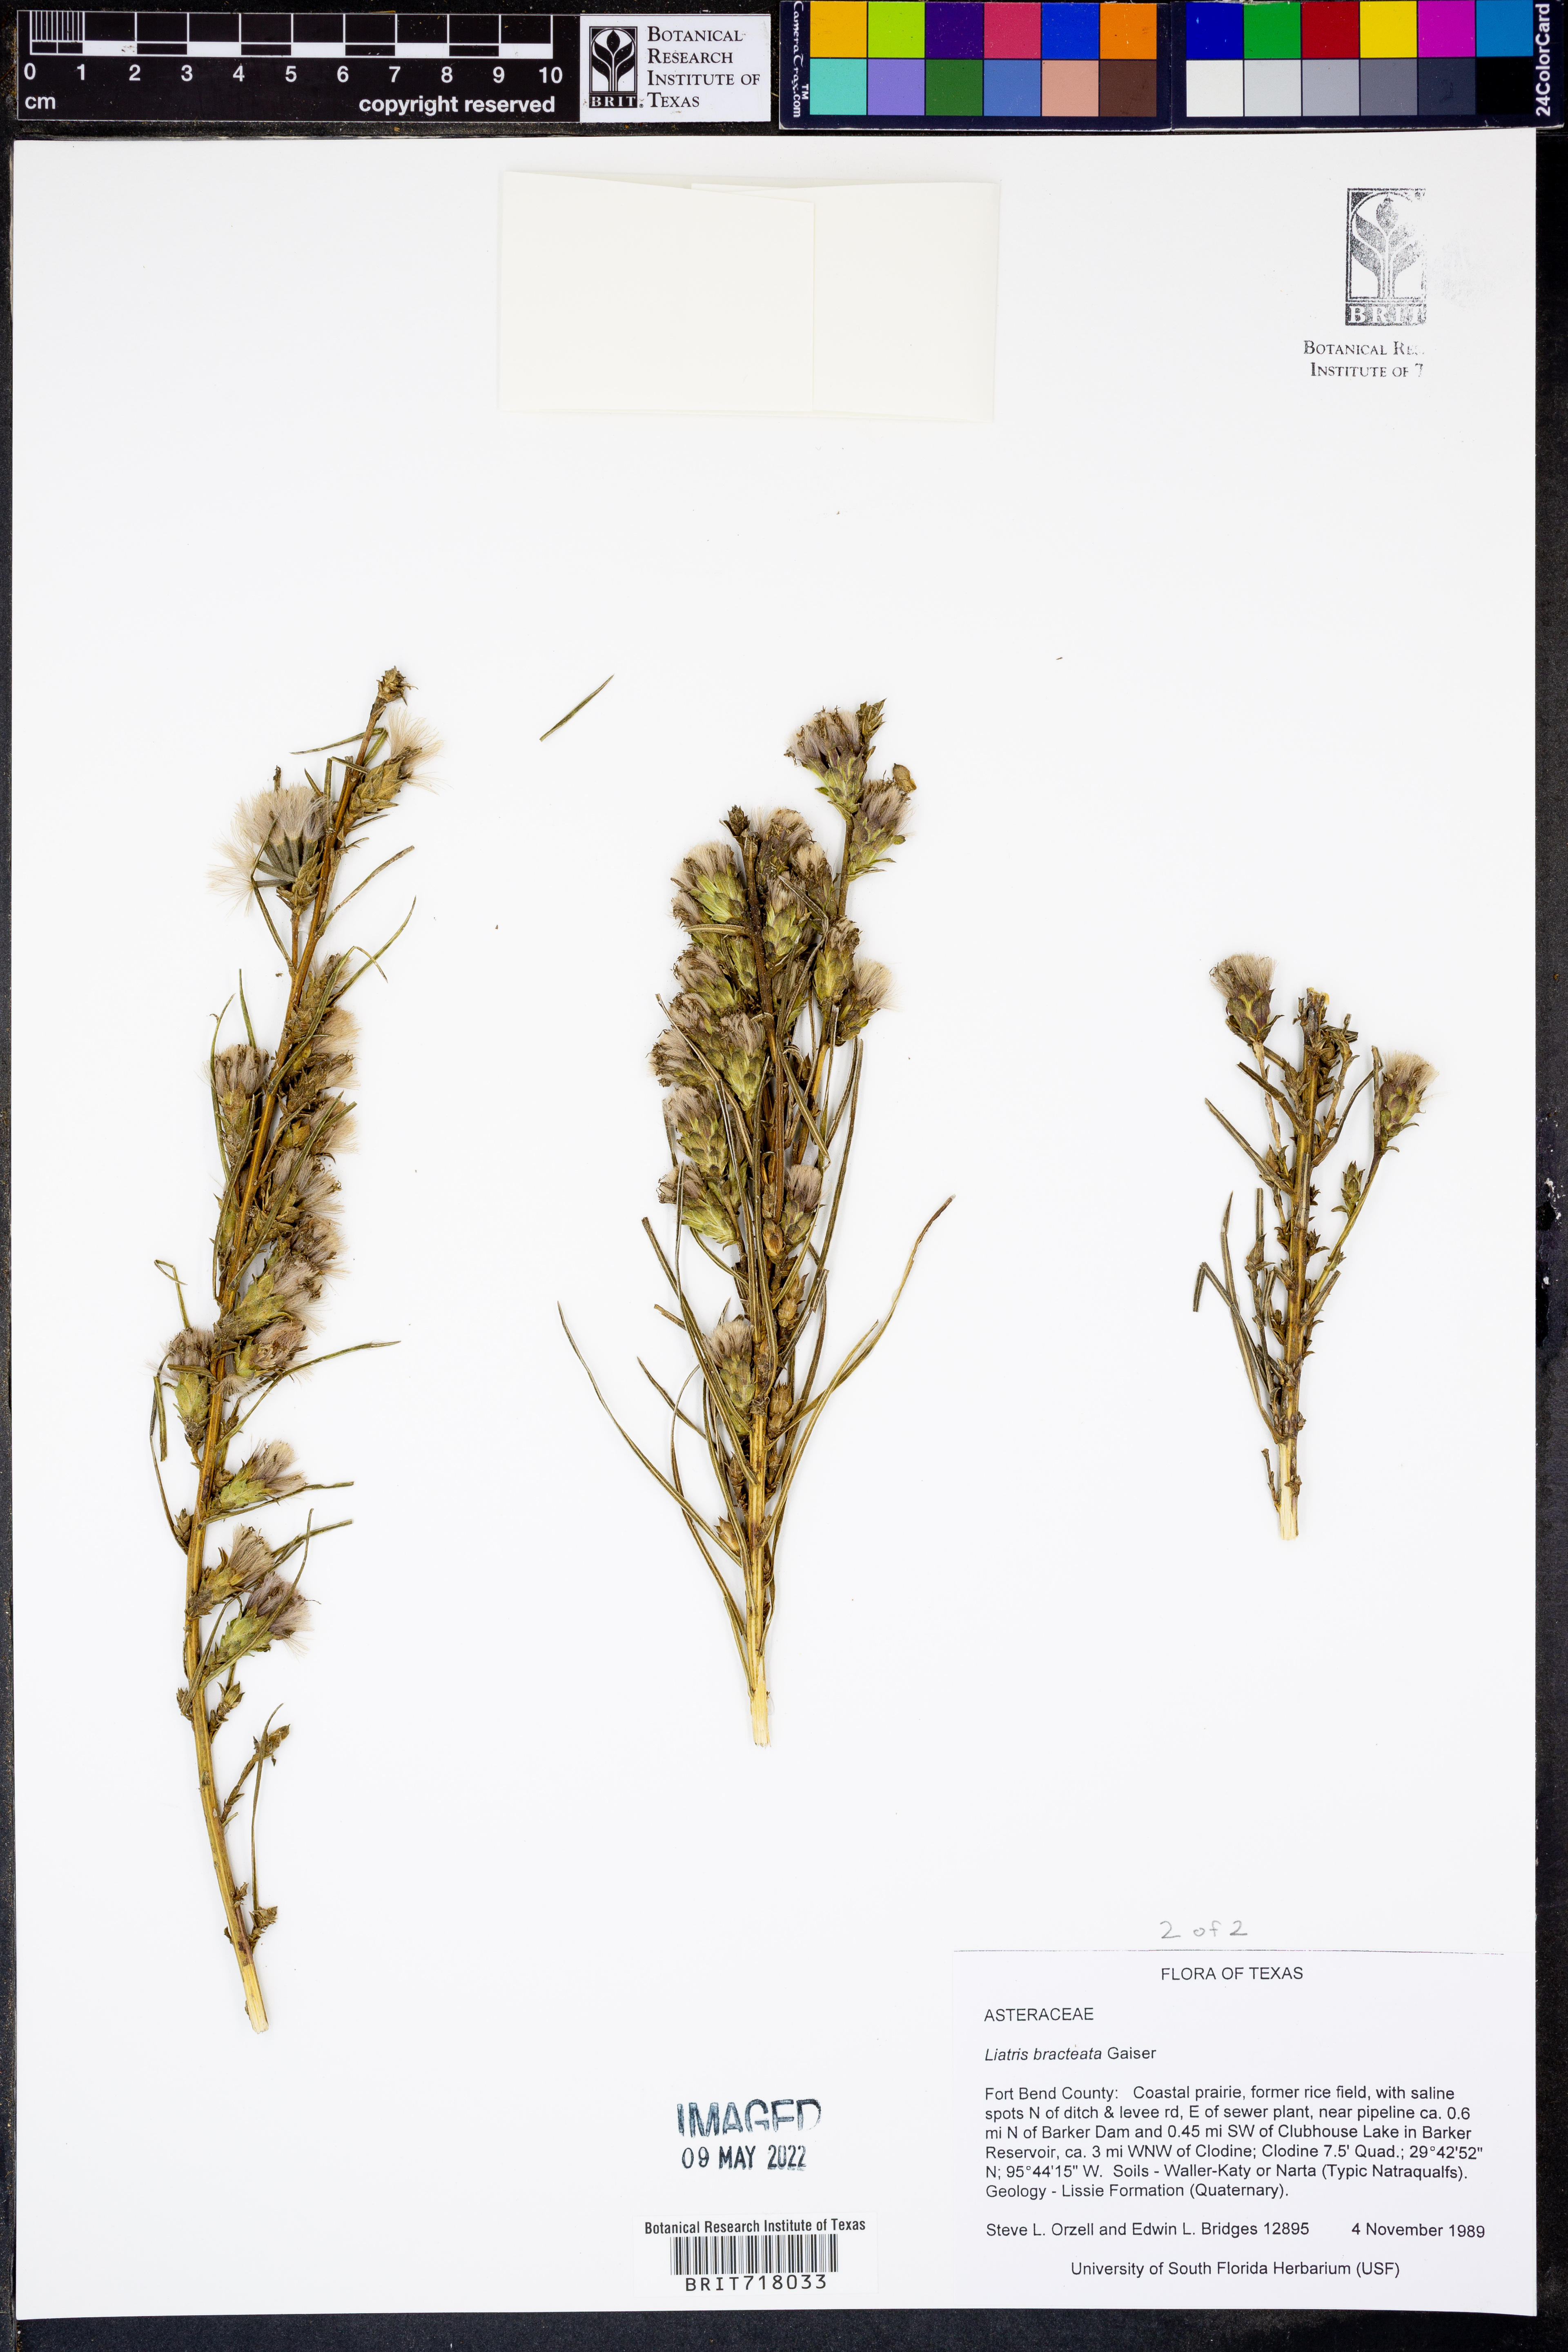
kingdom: Plantae
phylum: Tracheophyta
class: Magnoliopsida
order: Asterales
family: Asteraceae
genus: Liatris
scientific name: Liatris bracteata
